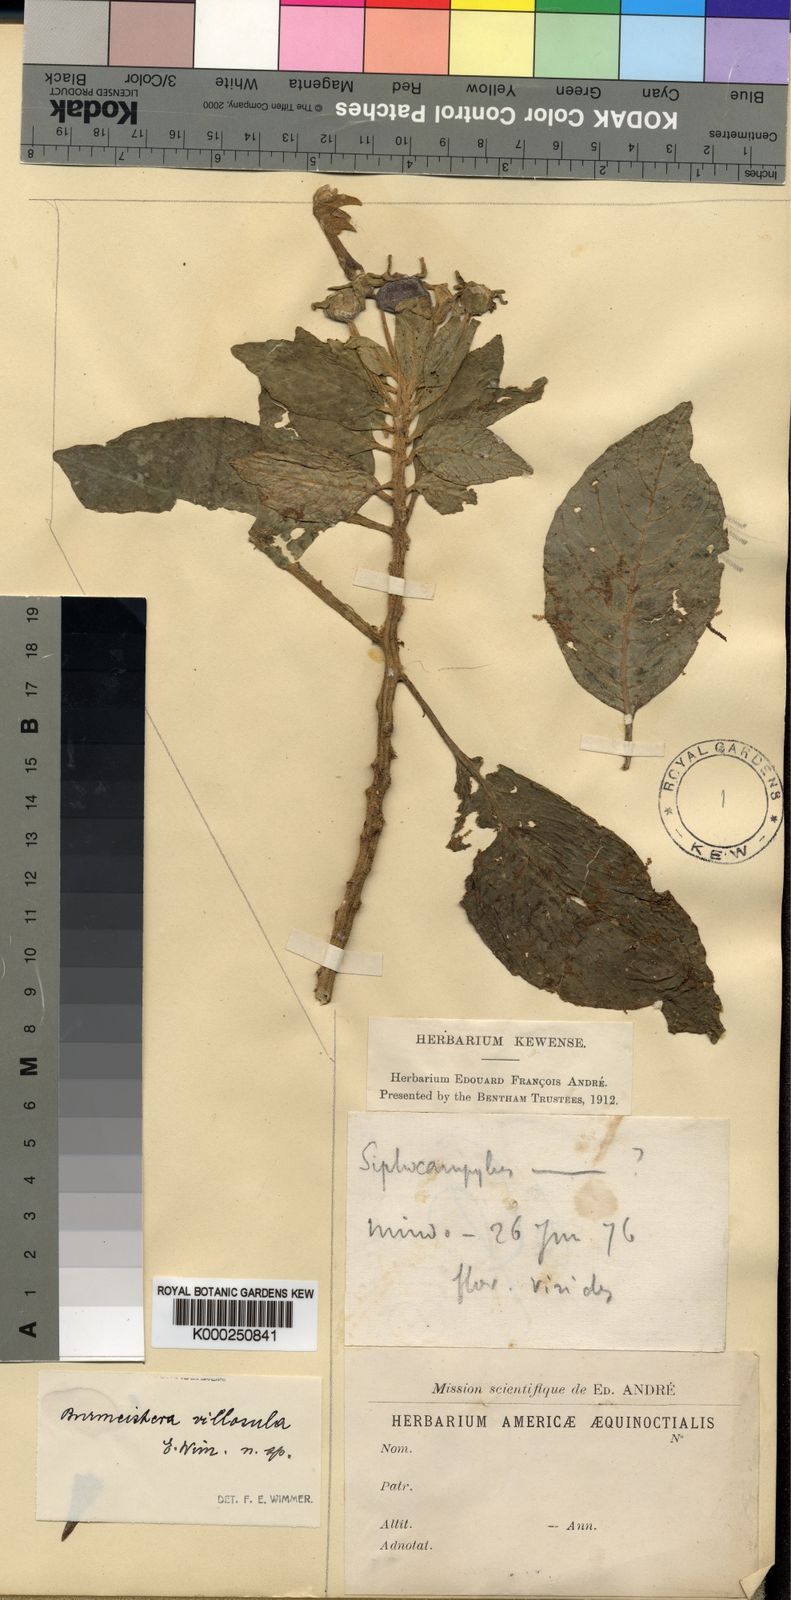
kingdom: Plantae
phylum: Tracheophyta
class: Magnoliopsida
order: Asterales
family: Campanulaceae
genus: Burmeistera
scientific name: Burmeistera lutosa
